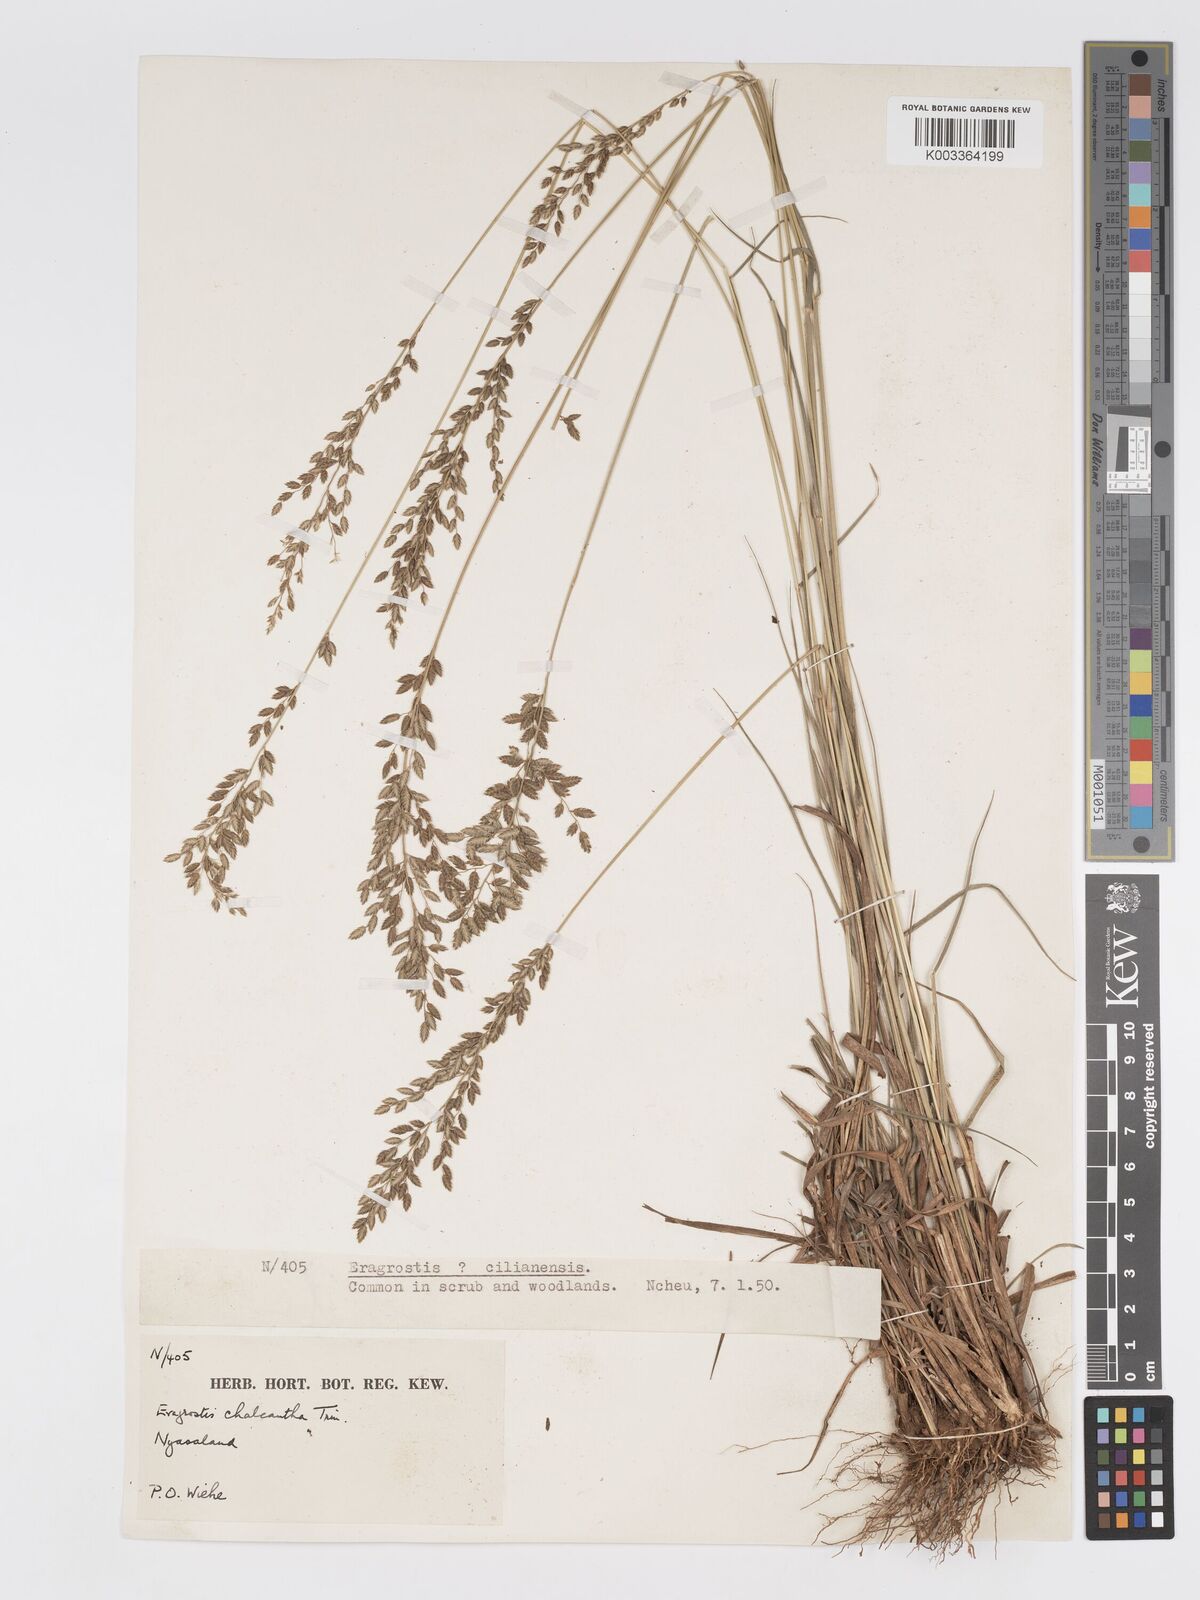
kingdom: Plantae
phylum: Tracheophyta
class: Liliopsida
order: Poales
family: Poaceae
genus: Eragrostis
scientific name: Eragrostis racemosa
